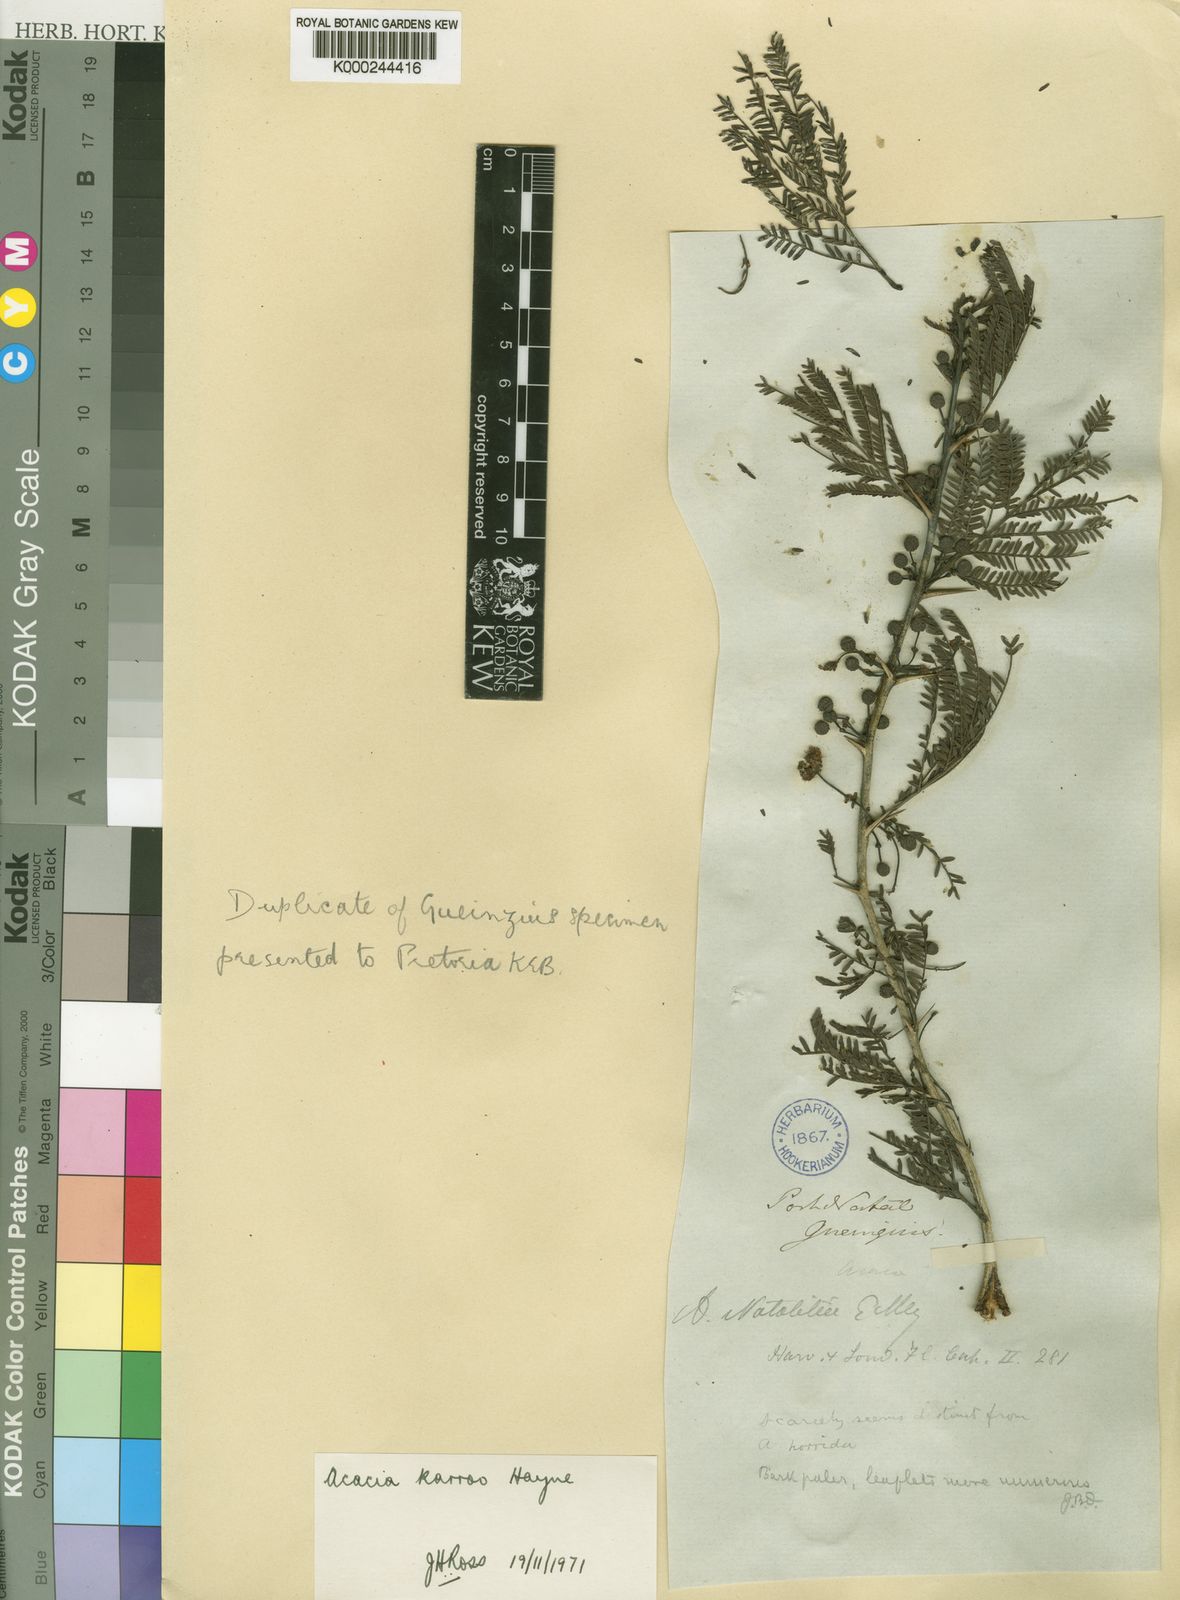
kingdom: Plantae
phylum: Tracheophyta
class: Magnoliopsida
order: Fabales
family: Fabaceae
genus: Vachellia
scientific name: Vachellia karroo
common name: Sweet thorn
